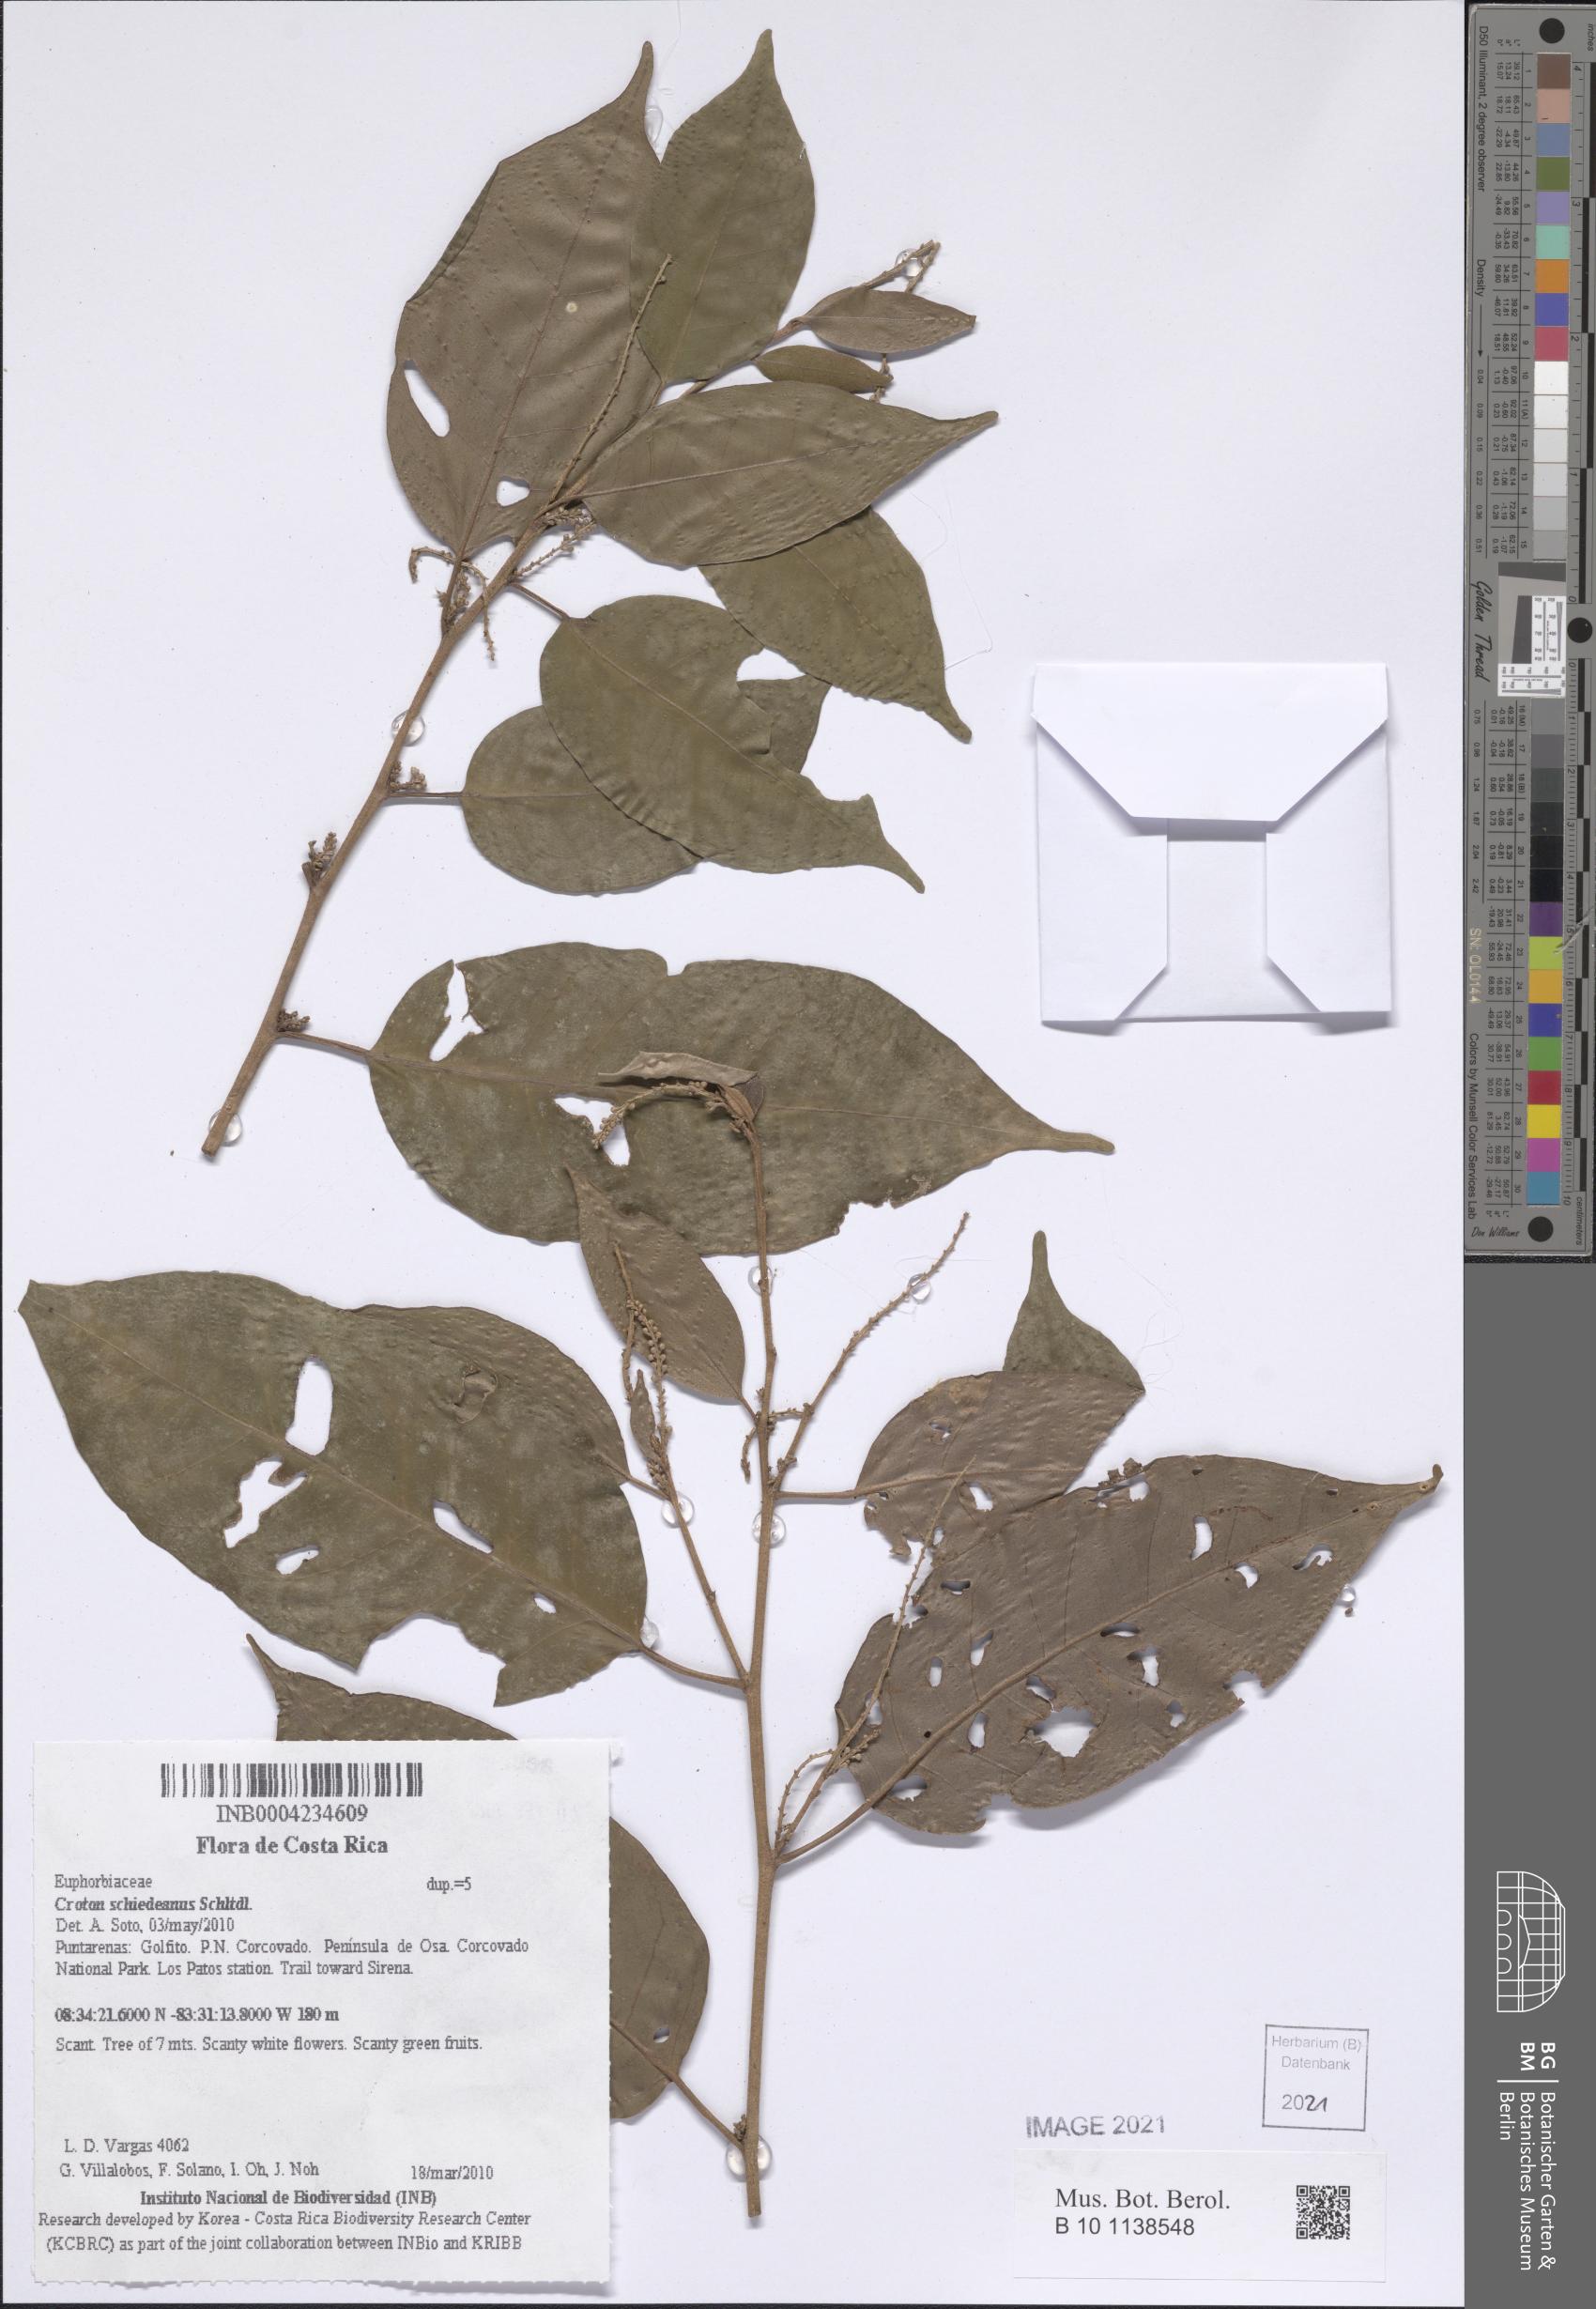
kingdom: Plantae
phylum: Tracheophyta
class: Magnoliopsida
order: Malpighiales
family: Euphorbiaceae
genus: Croton
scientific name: Croton schiedeanus
